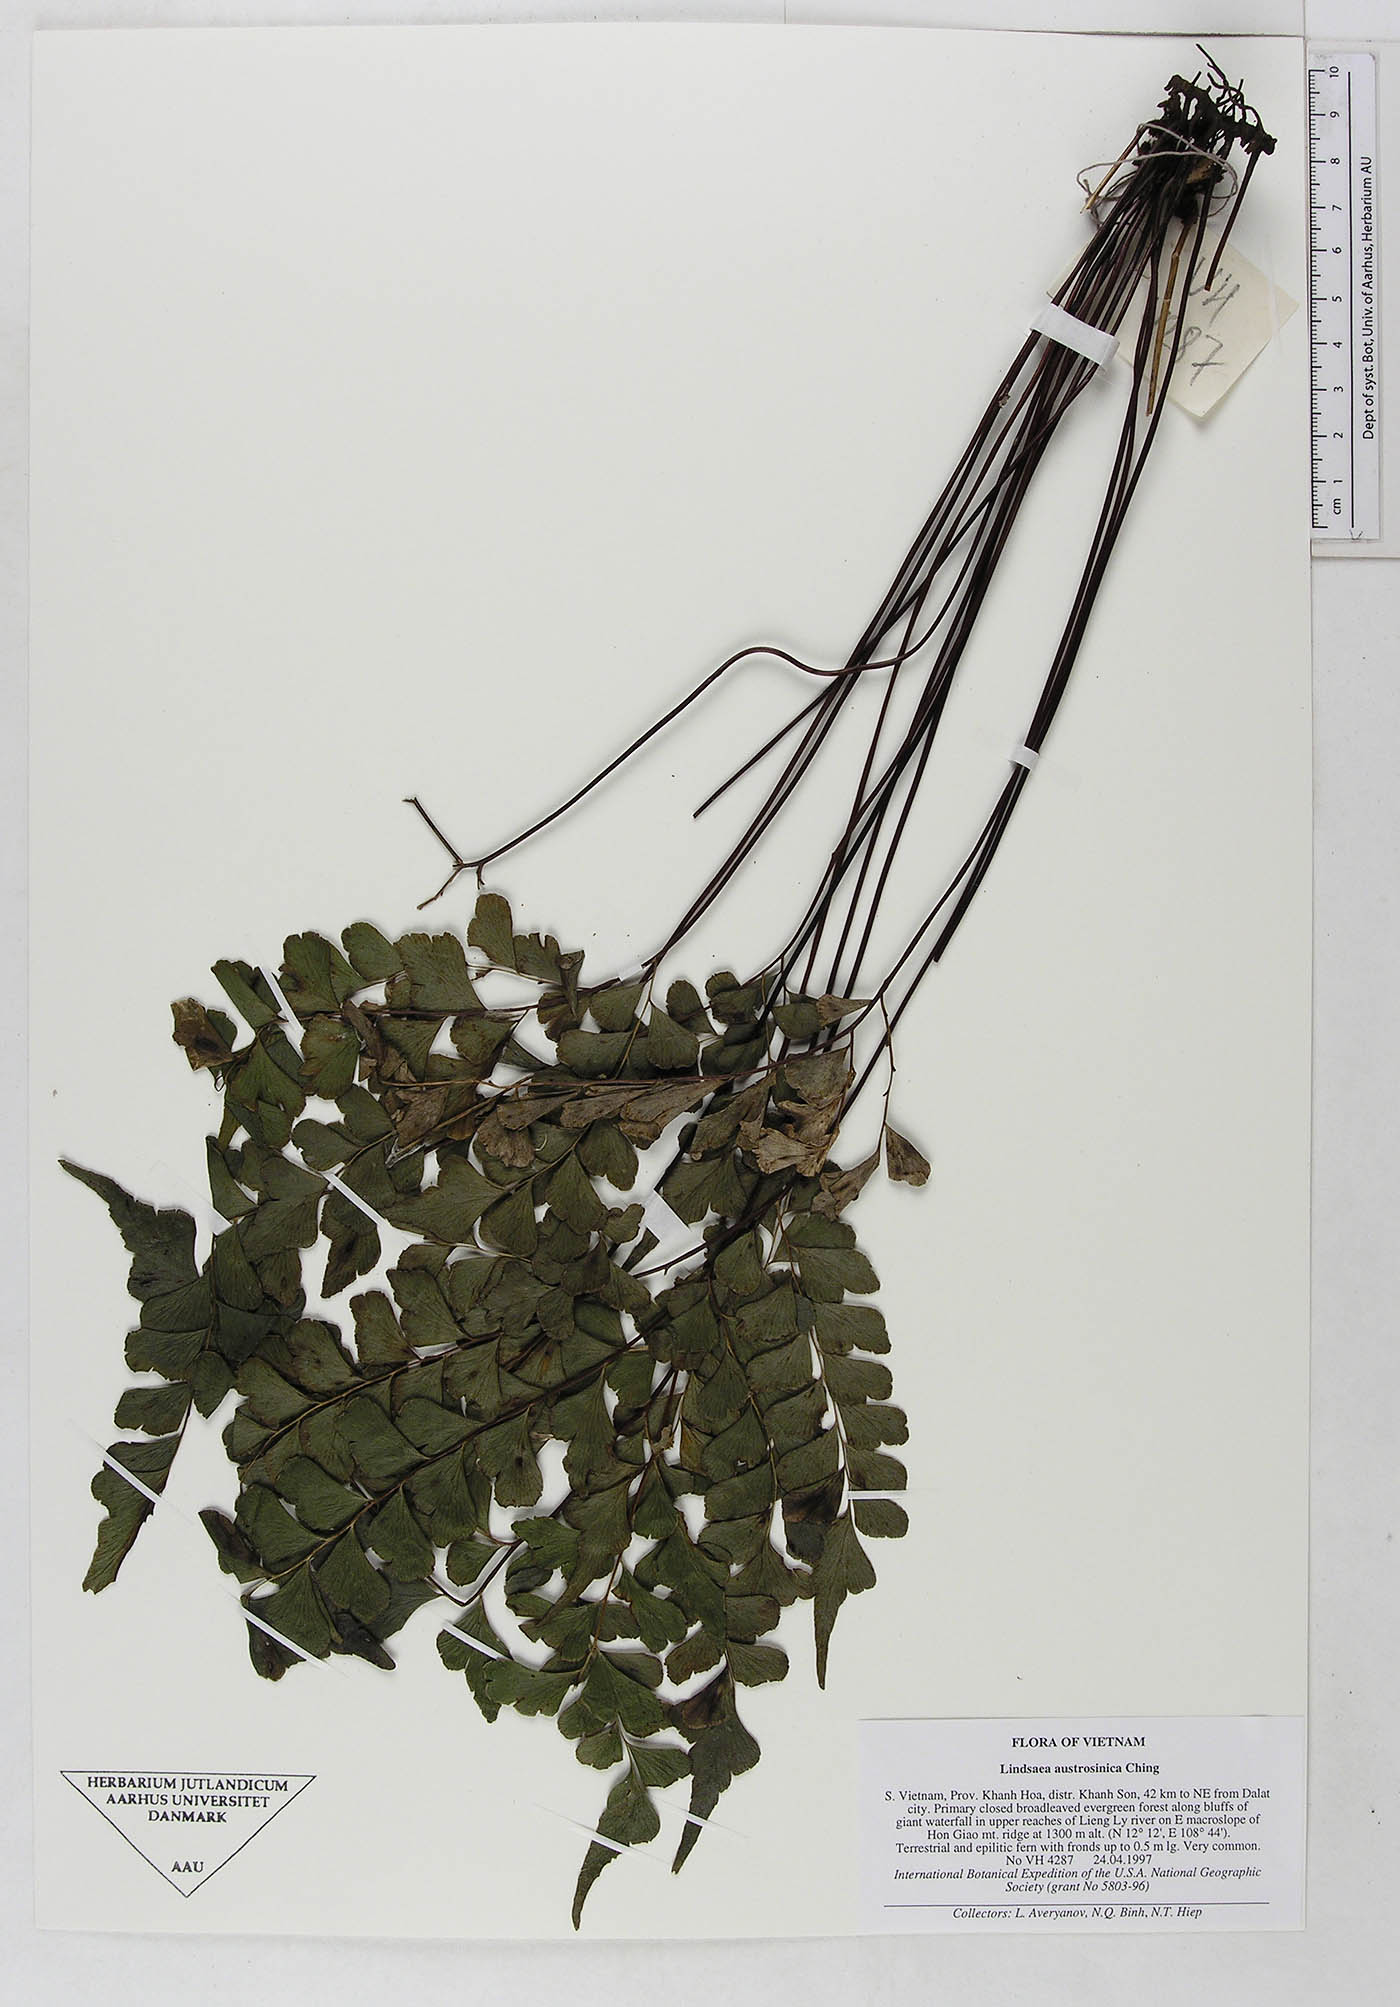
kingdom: Plantae
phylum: Tracheophyta
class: Polypodiopsida
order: Polypodiales
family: Lindsaeaceae
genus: Lindsaea
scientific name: Lindsaea austrosinica
